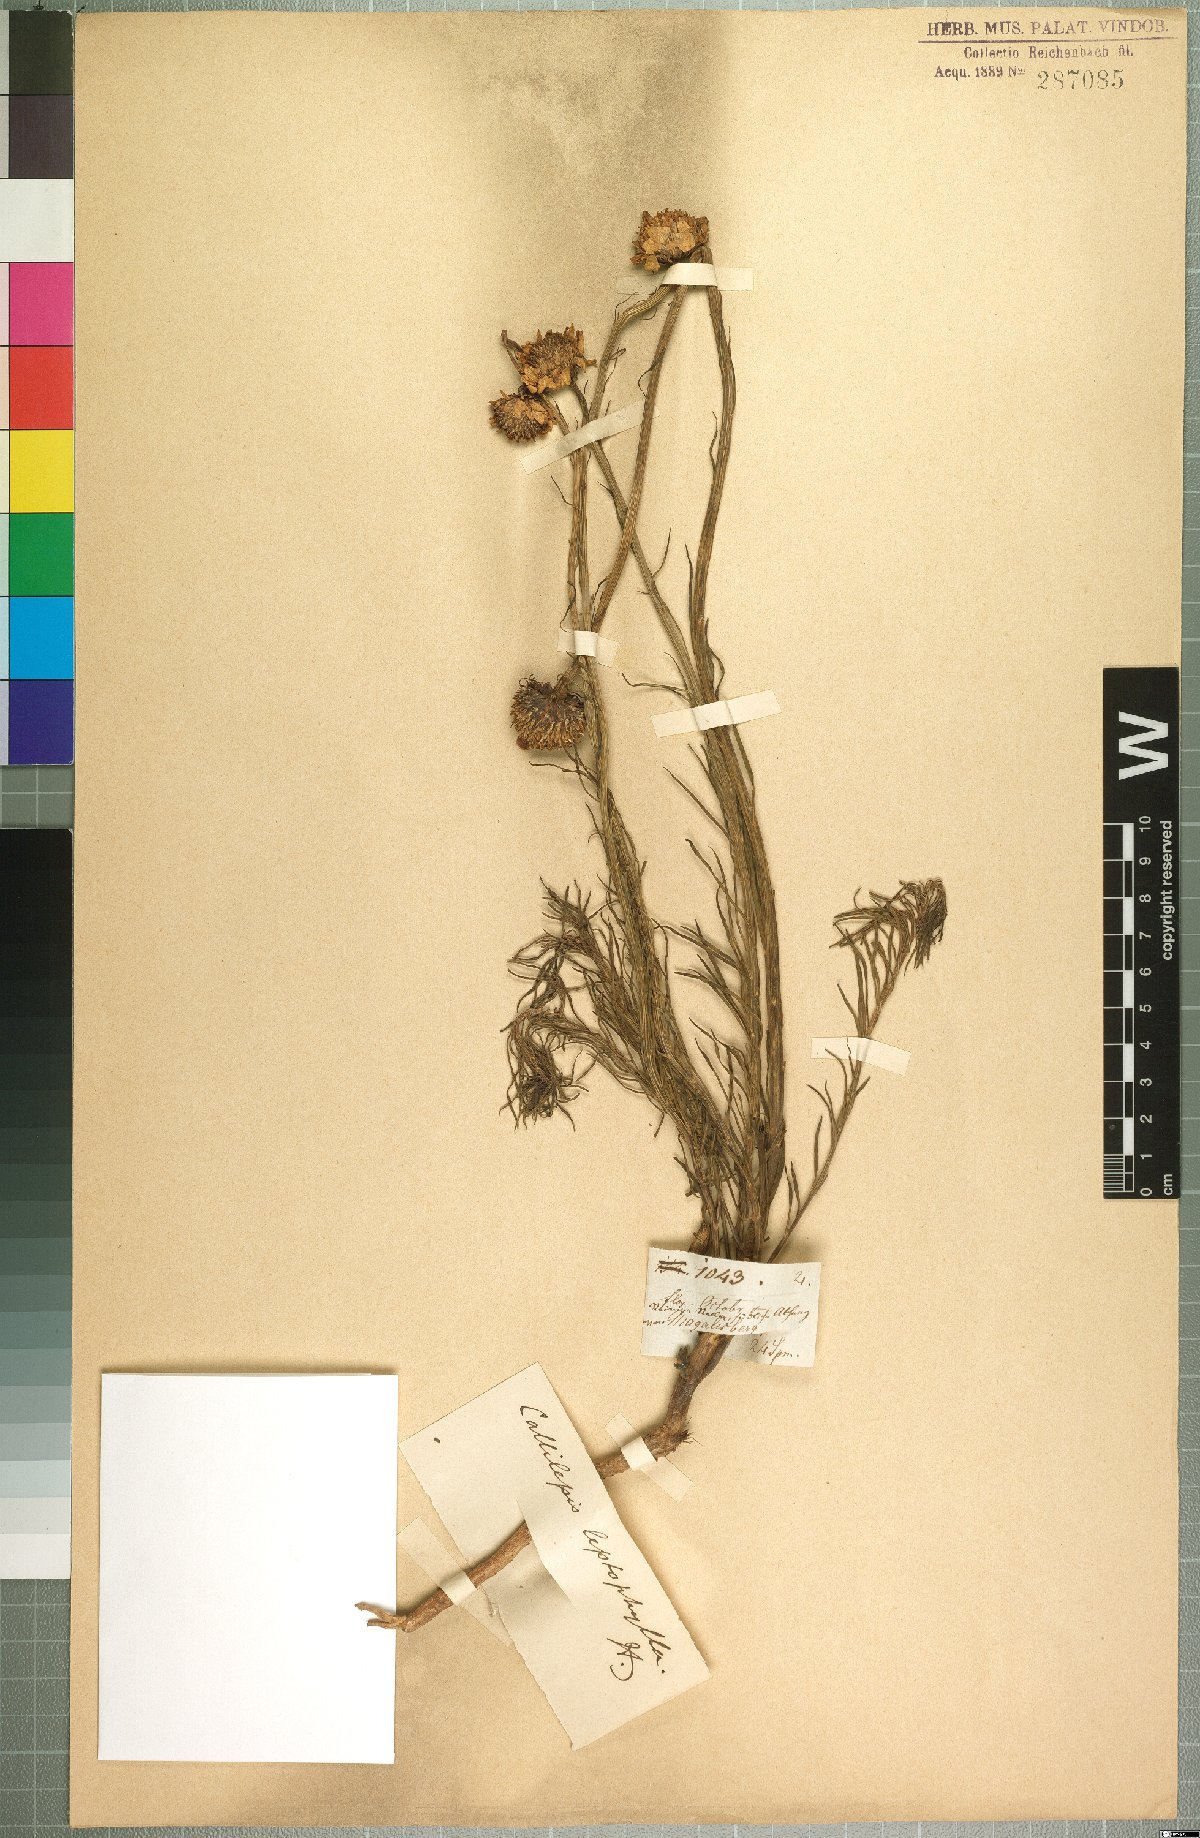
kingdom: Plantae
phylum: Tracheophyta
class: Magnoliopsida
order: Asterales
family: Asteraceae
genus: Callilepis
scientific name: Callilepis leptophylla
